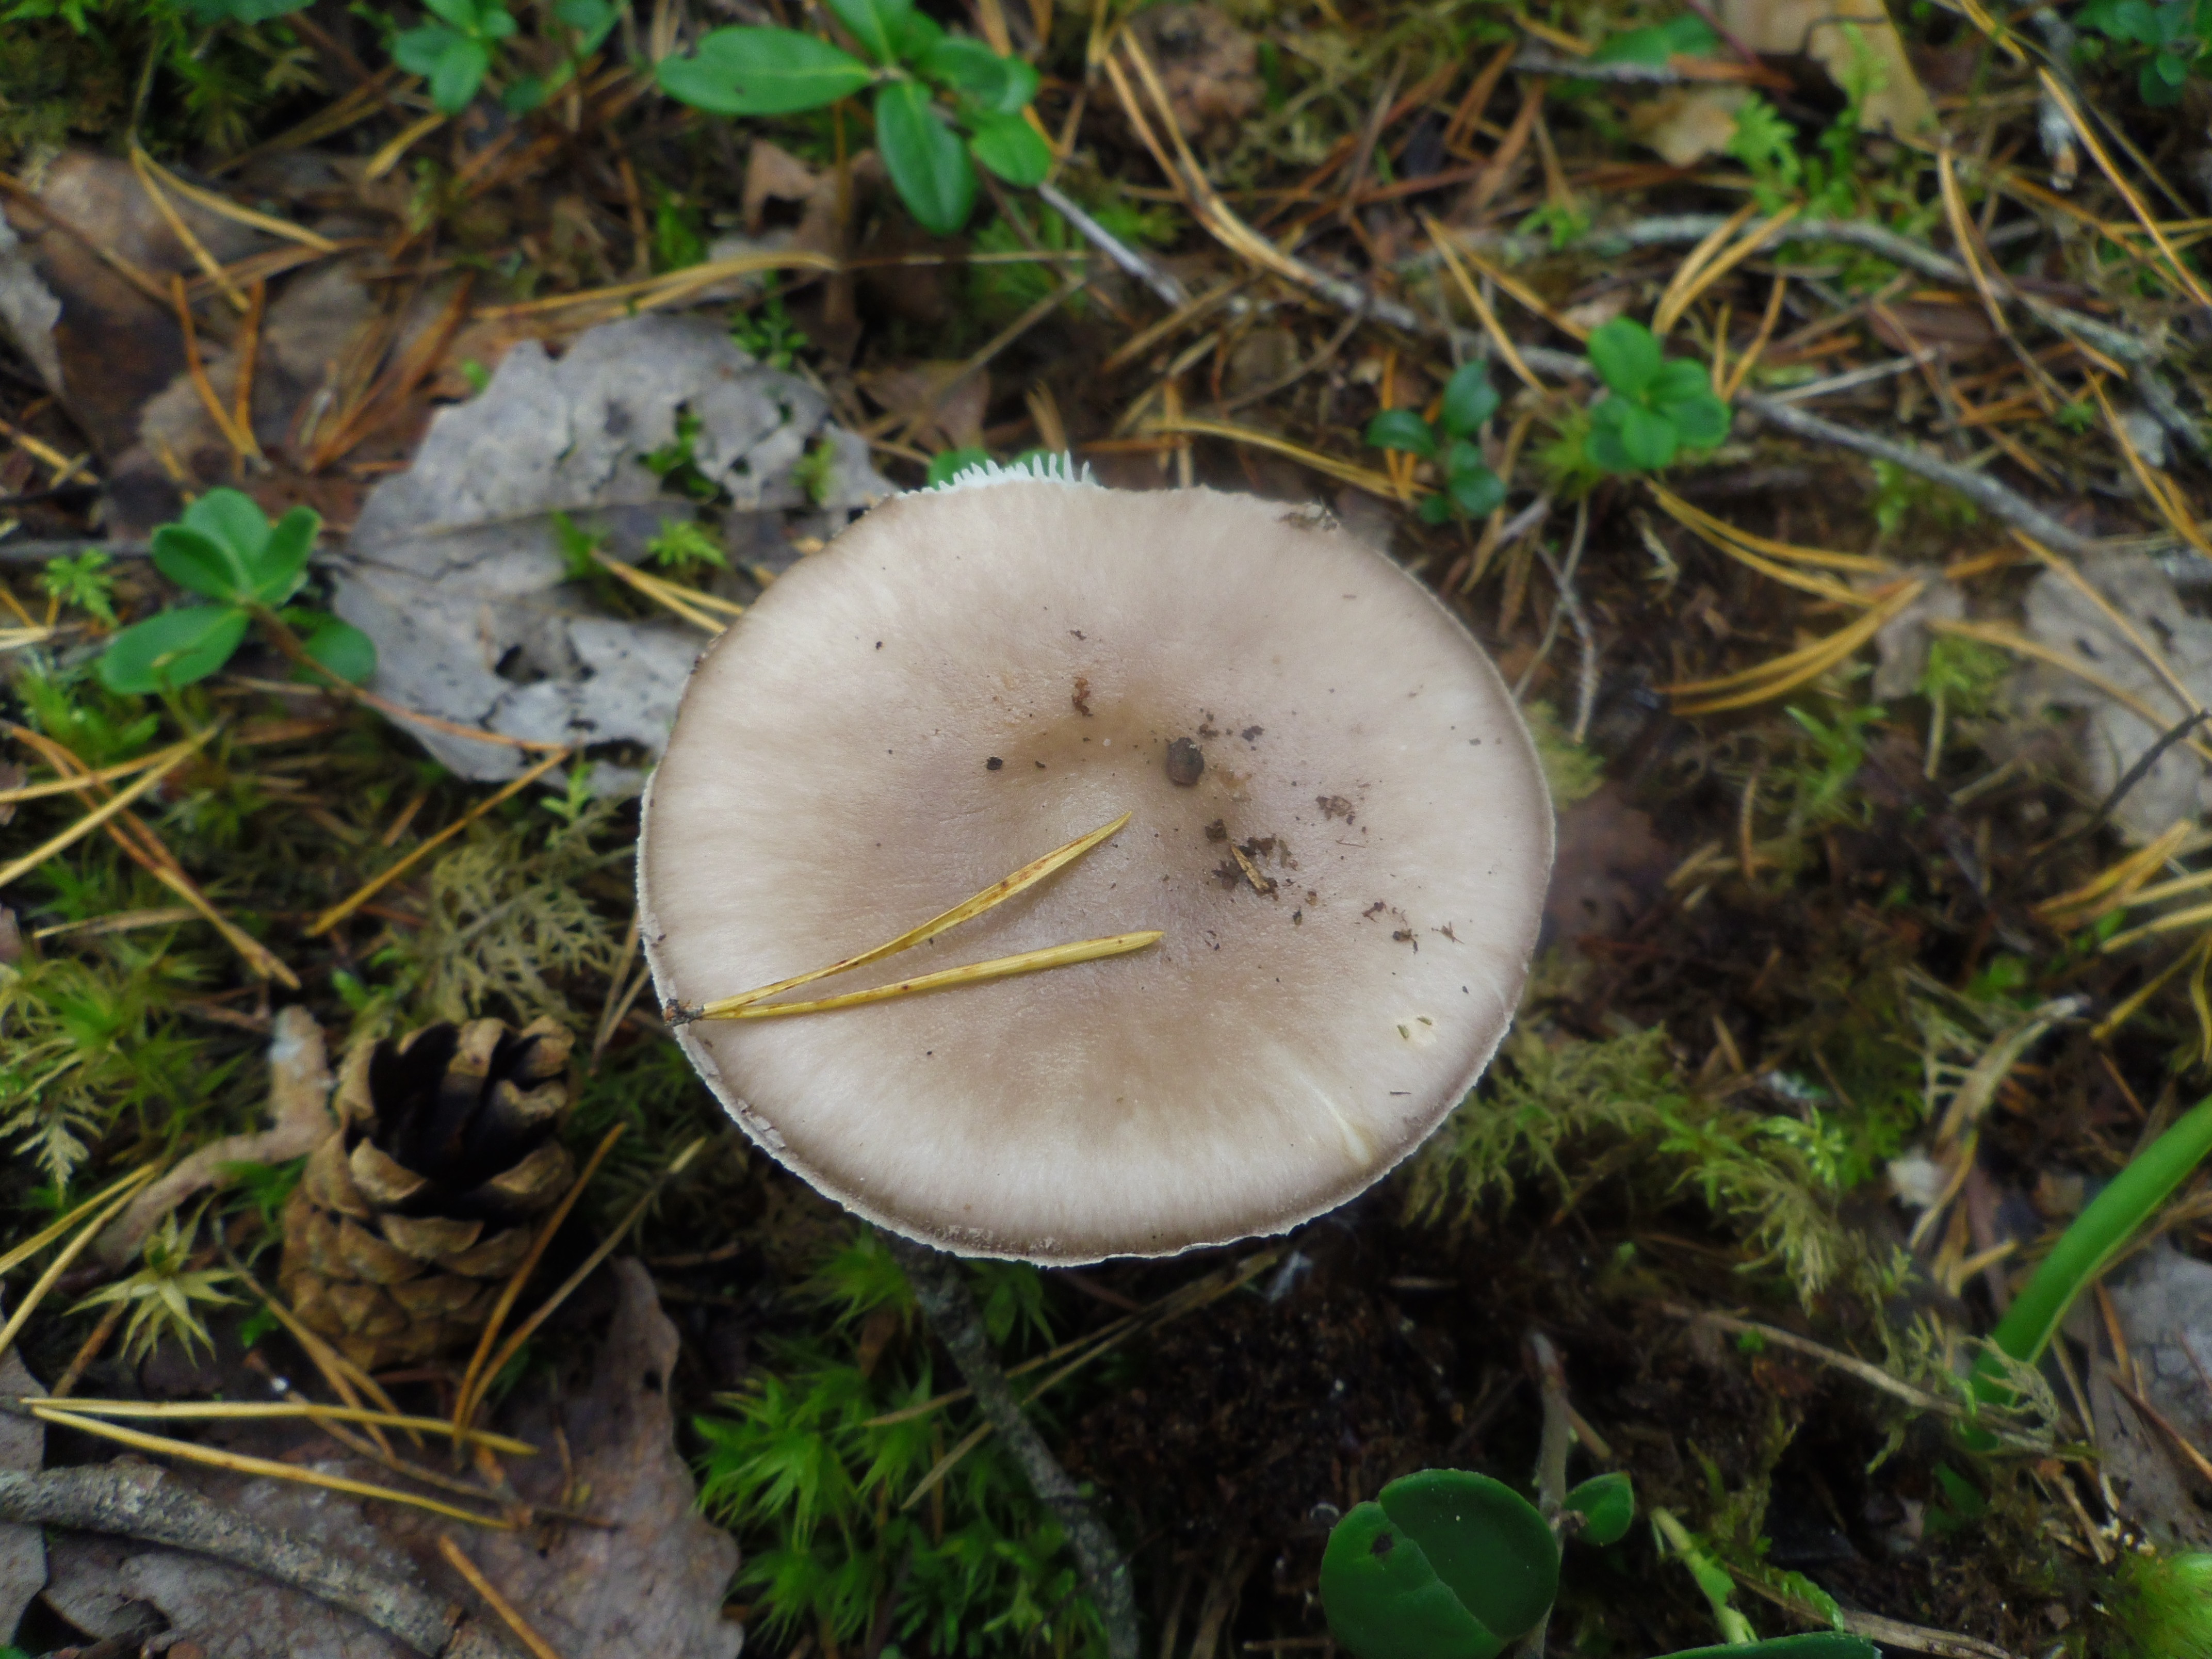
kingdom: Fungi
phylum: Basidiomycota
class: Agaricomycetes
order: Agaricales
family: Amanitaceae
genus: Amanita
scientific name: Amanita porphyria
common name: Grey veiled amanita
